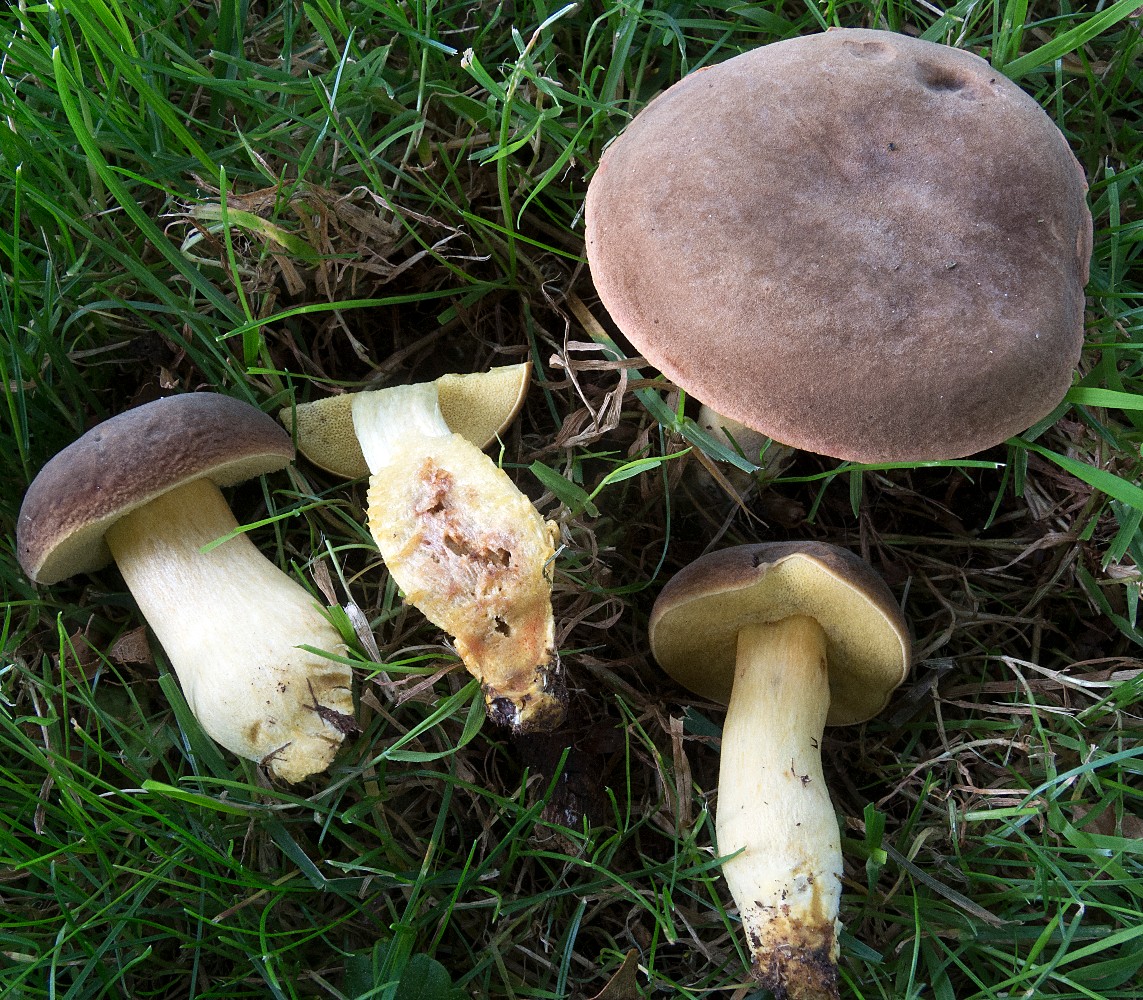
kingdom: Fungi
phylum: Basidiomycota
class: Agaricomycetes
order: Boletales
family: Boletaceae
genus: Hortiboletus
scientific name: Hortiboletus engelii
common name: fersken-rørhat
